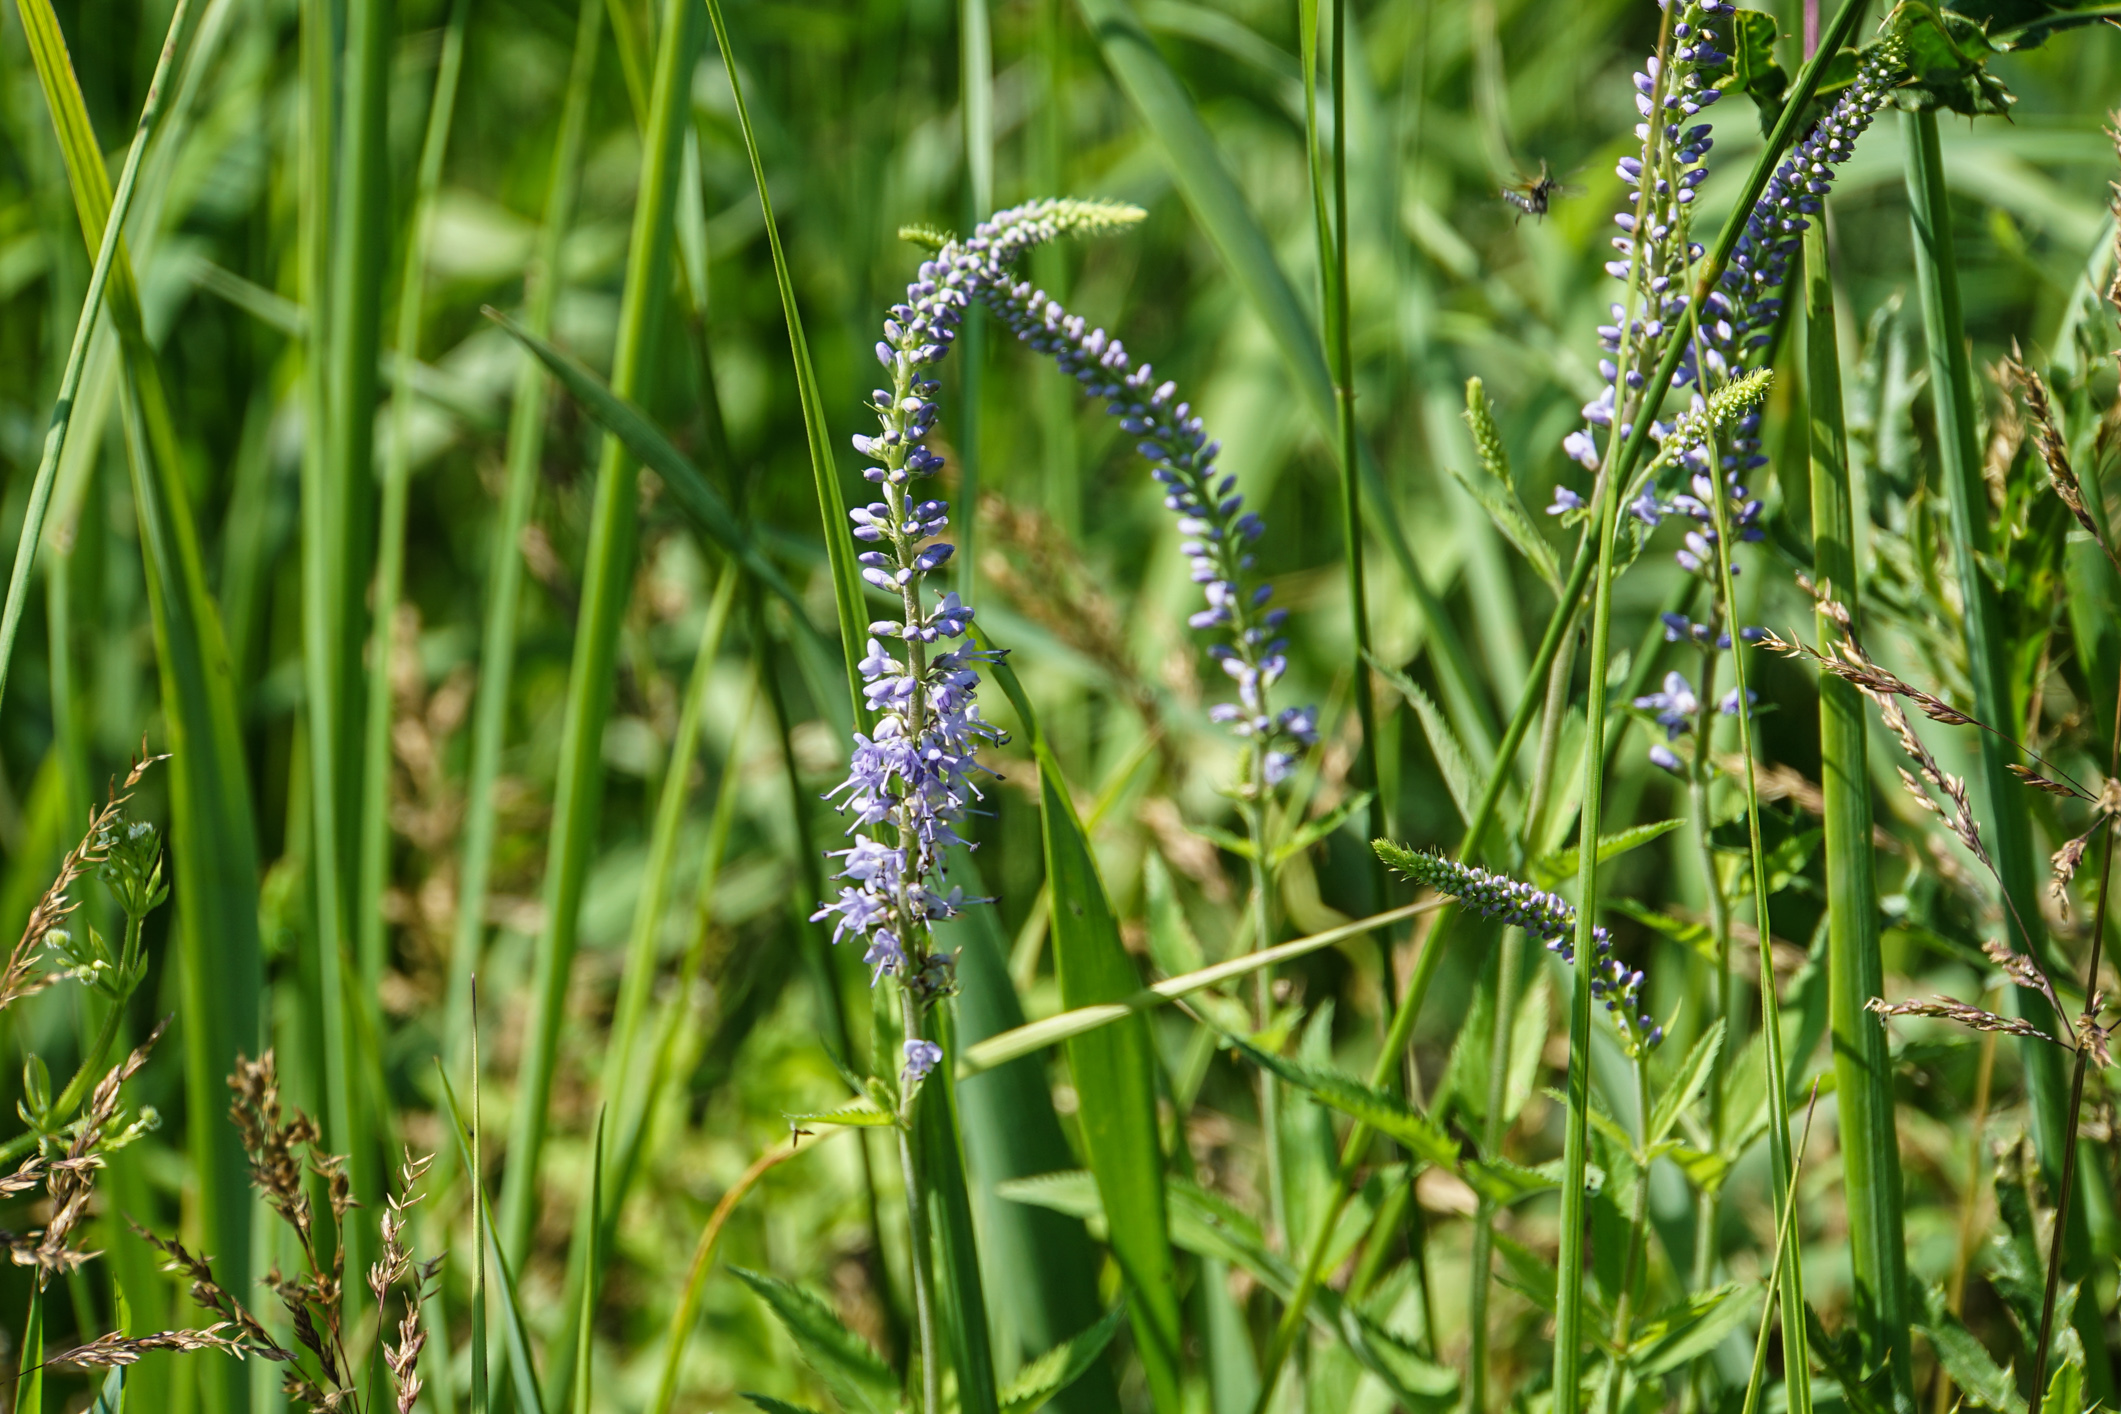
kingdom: Plantae
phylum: Tracheophyta
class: Magnoliopsida
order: Lamiales
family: Plantaginaceae
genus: Veronica
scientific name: Veronica longifolia
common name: Garden speedwell
